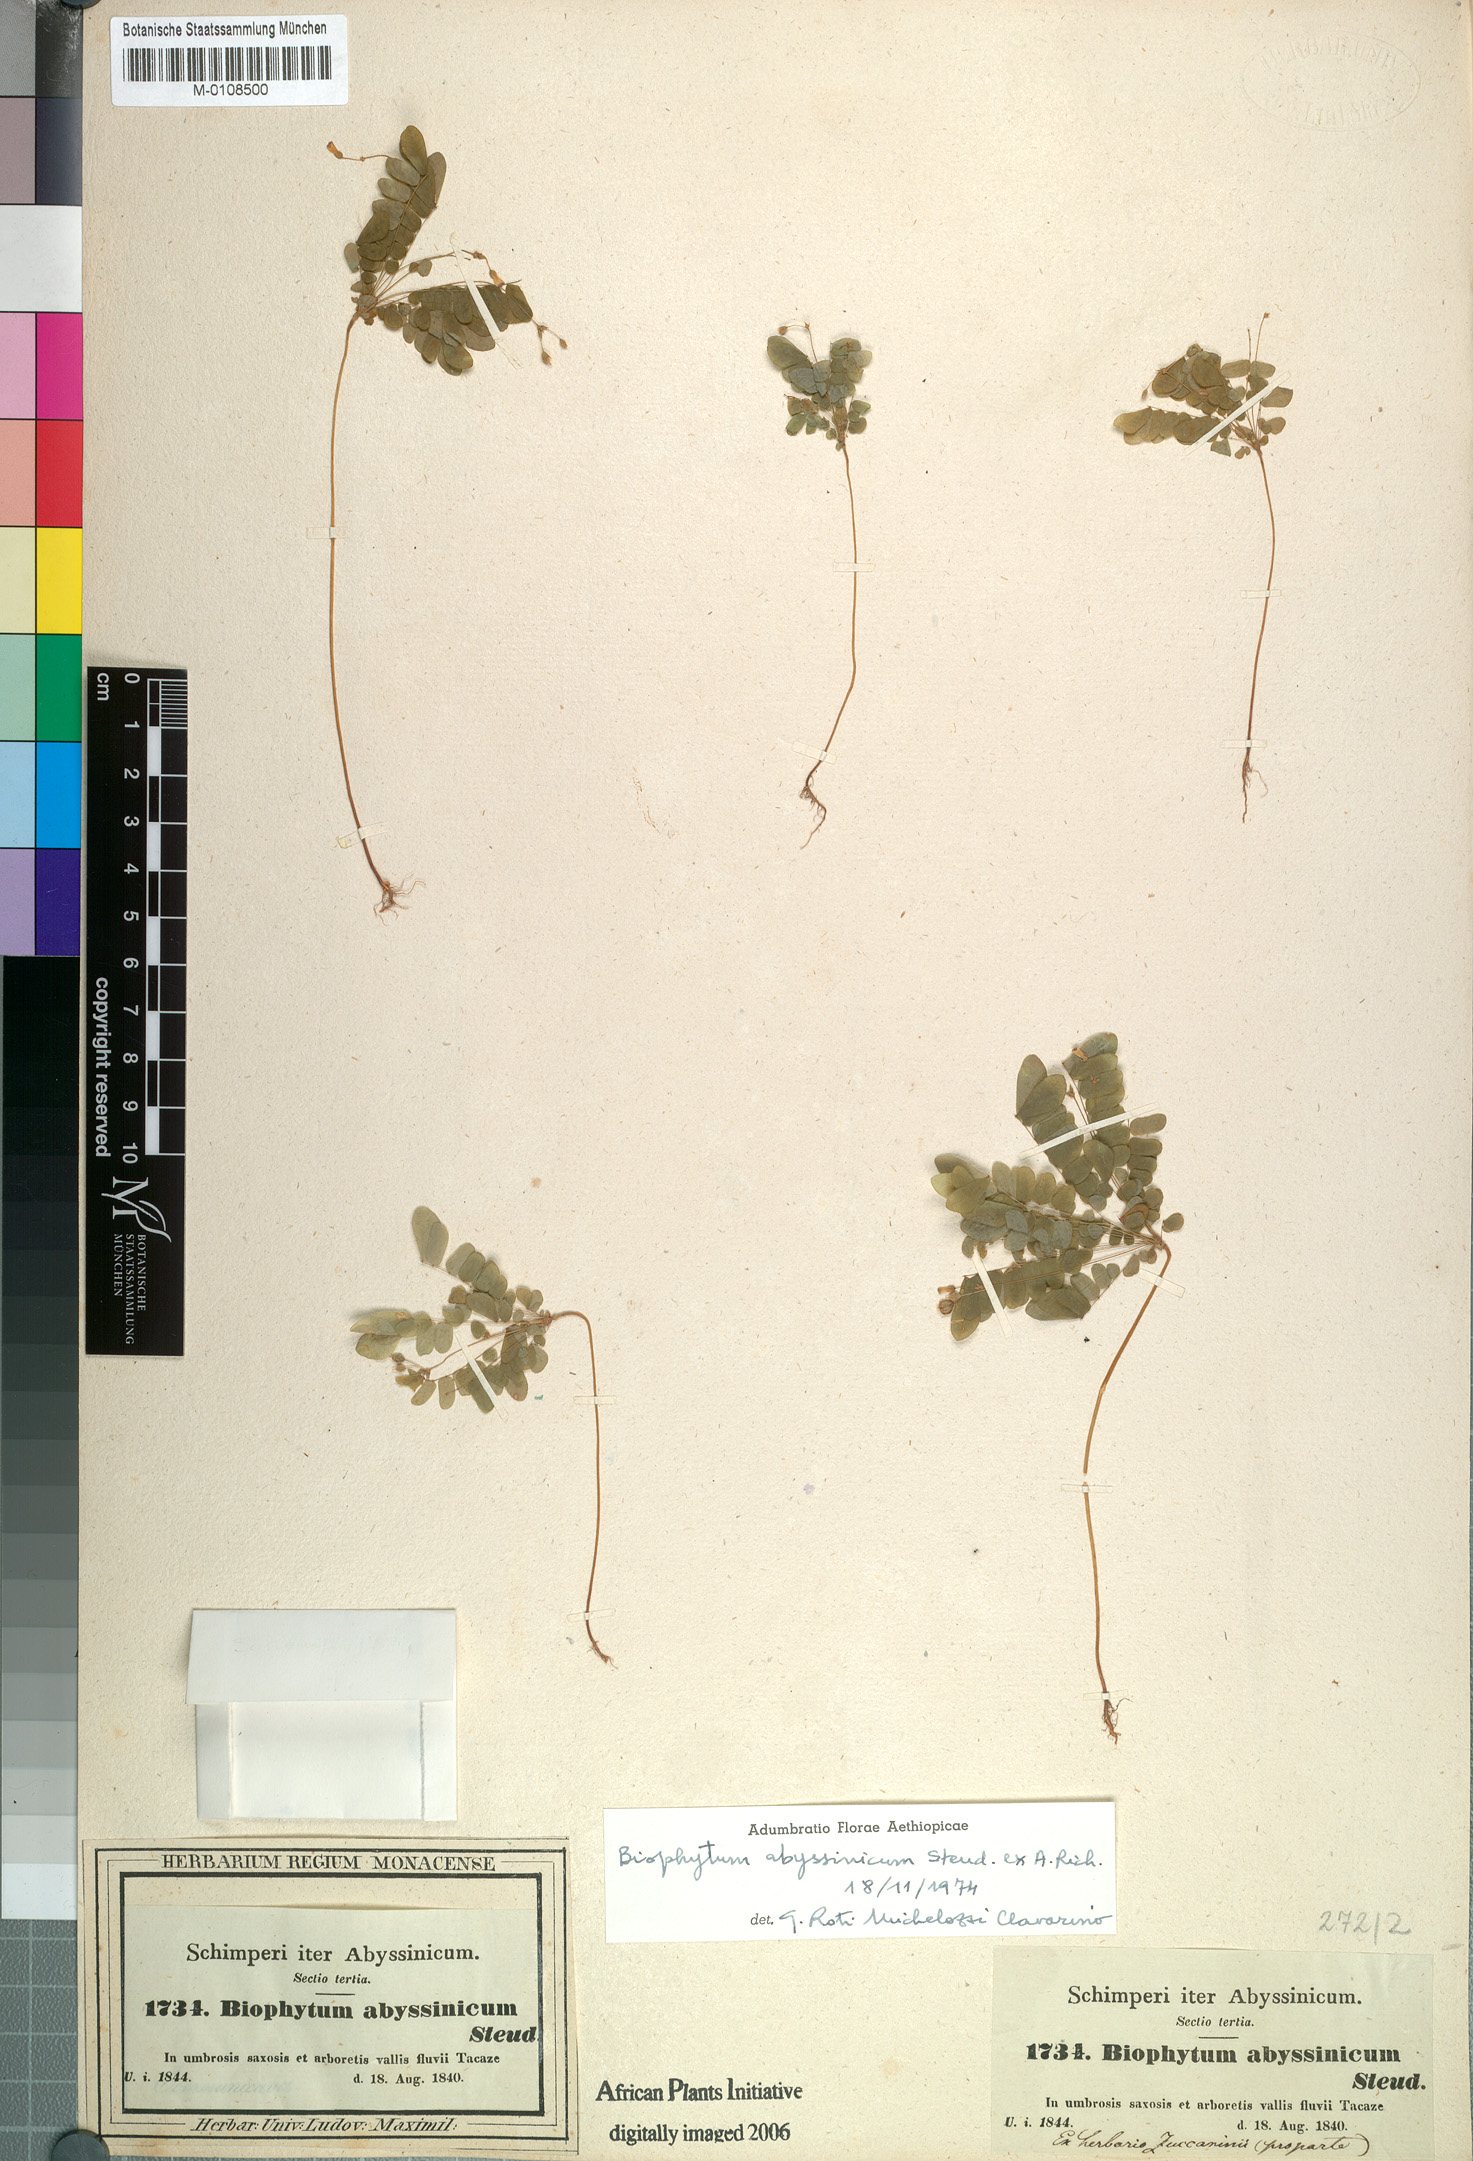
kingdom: Plantae
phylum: Tracheophyta
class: Magnoliopsida
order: Oxalidales
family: Oxalidaceae
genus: Biophytum
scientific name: Biophytum abyssinicum
